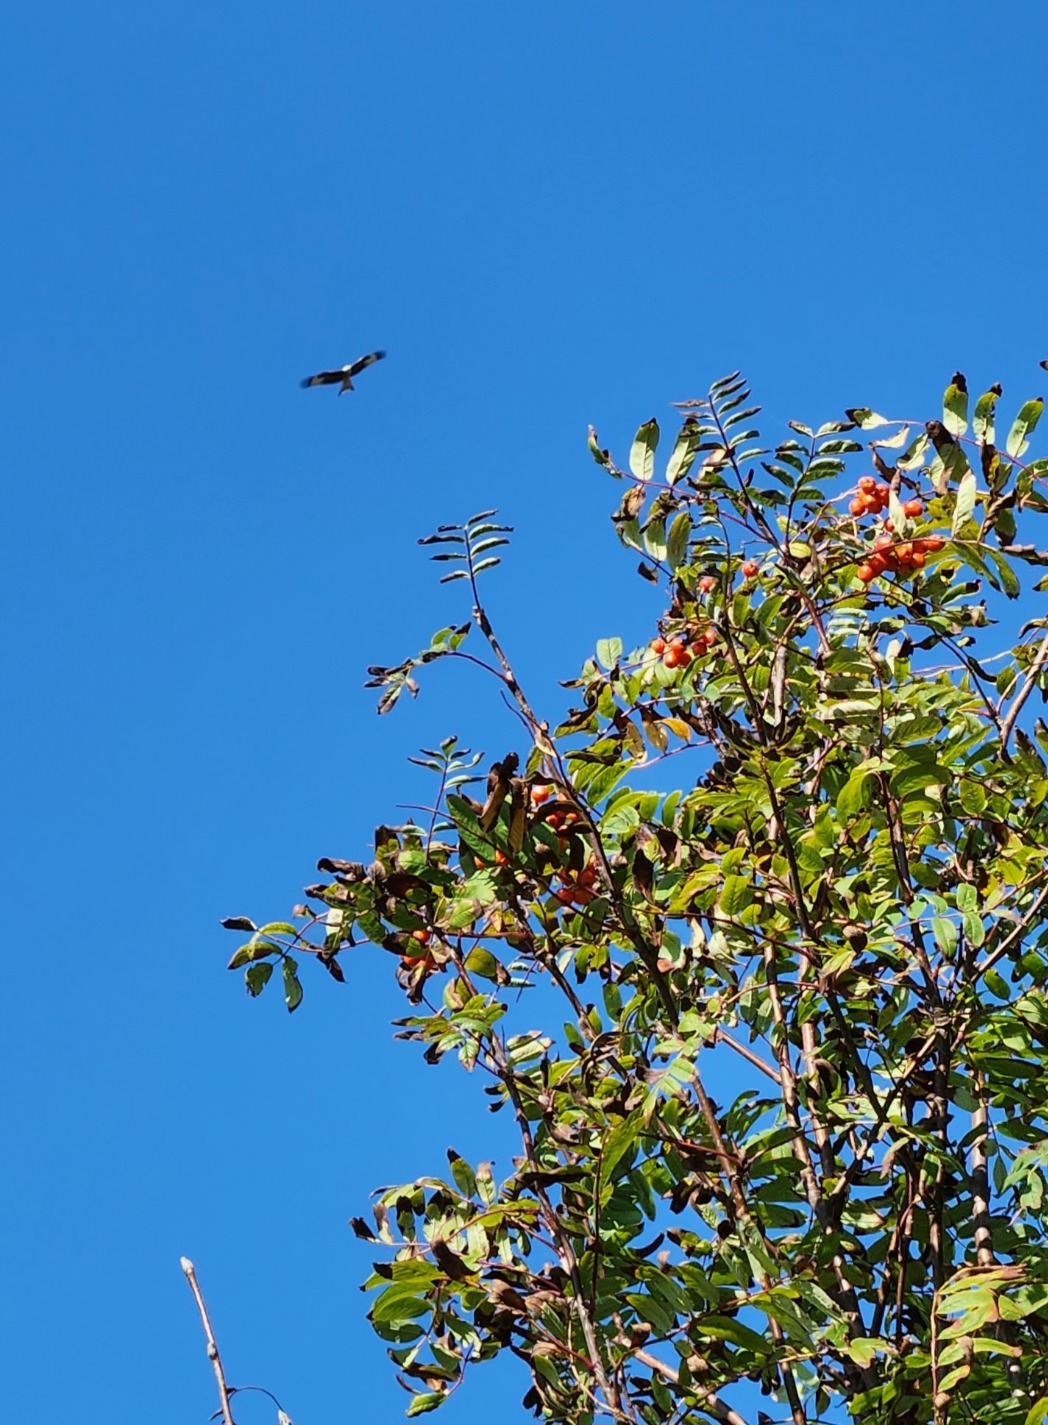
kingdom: Animalia
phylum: Chordata
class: Aves
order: Accipitriformes
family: Accipitridae
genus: Milvus
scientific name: Milvus milvus
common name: Rød glente
